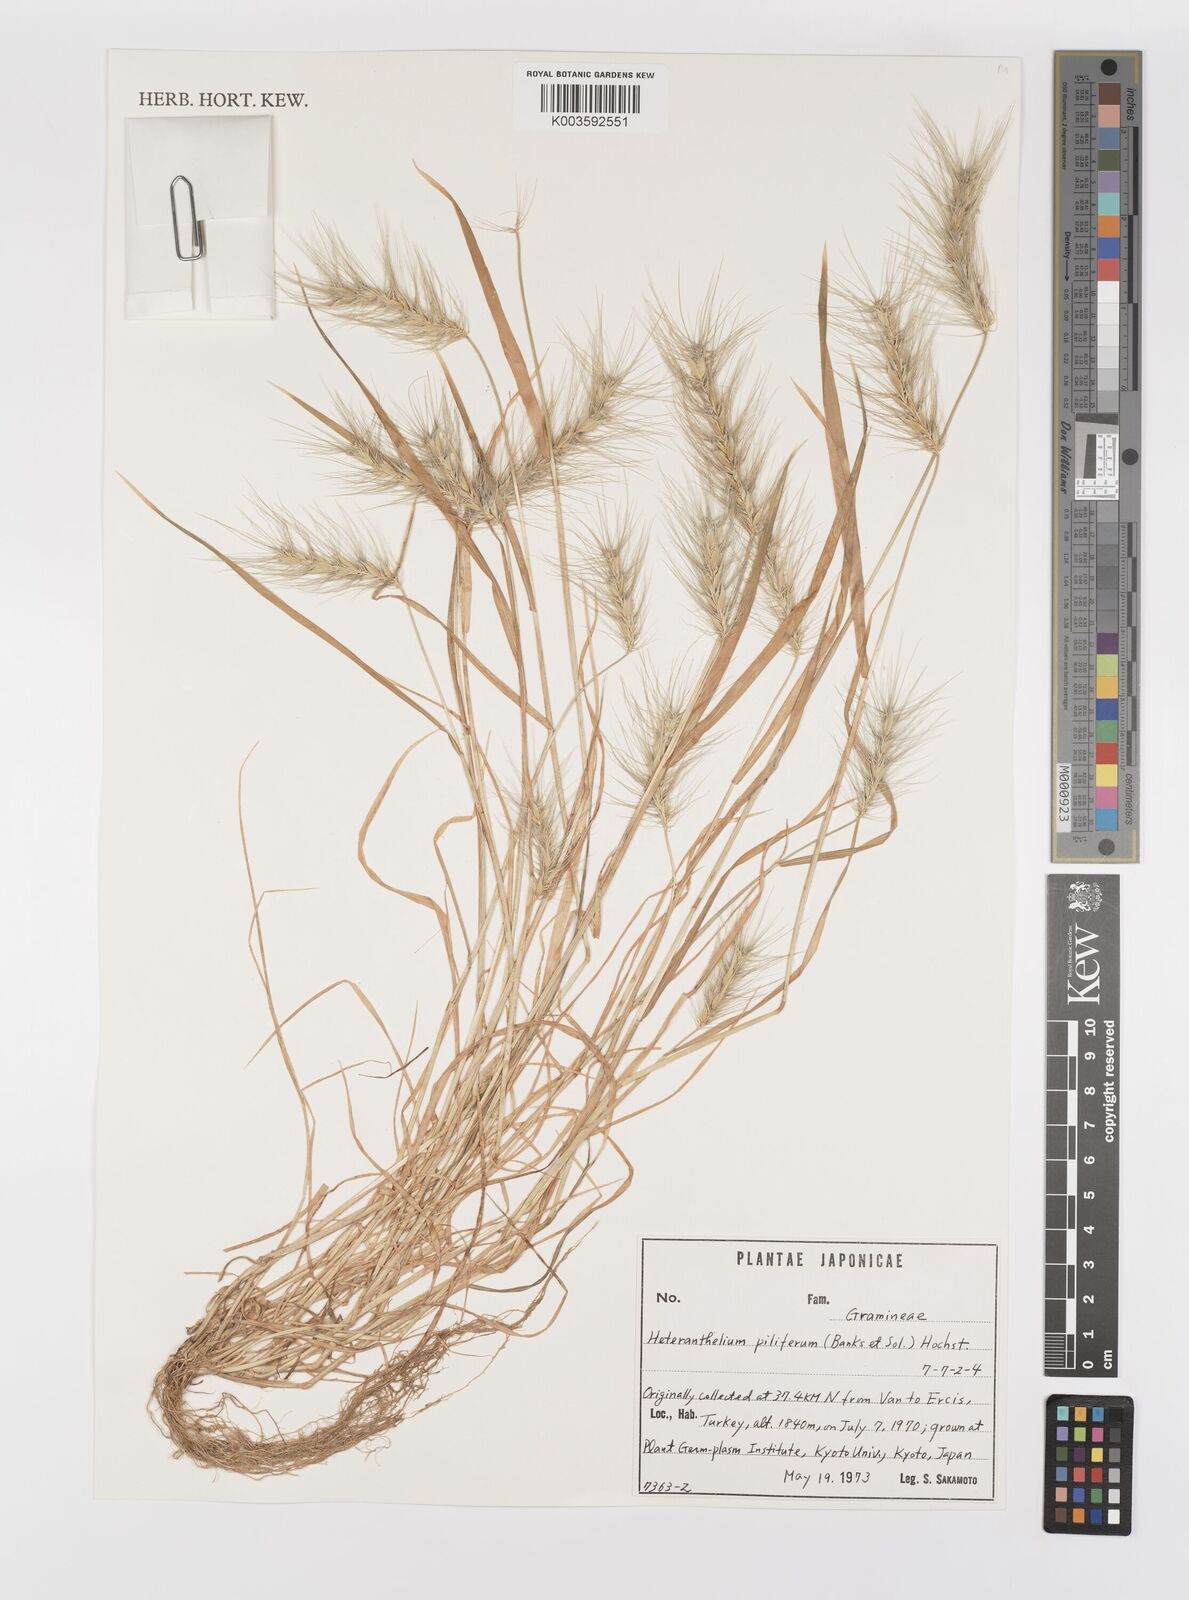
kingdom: Plantae
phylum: Tracheophyta
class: Liliopsida
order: Poales
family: Poaceae
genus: Heteranthelium
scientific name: Heteranthelium piliferum
